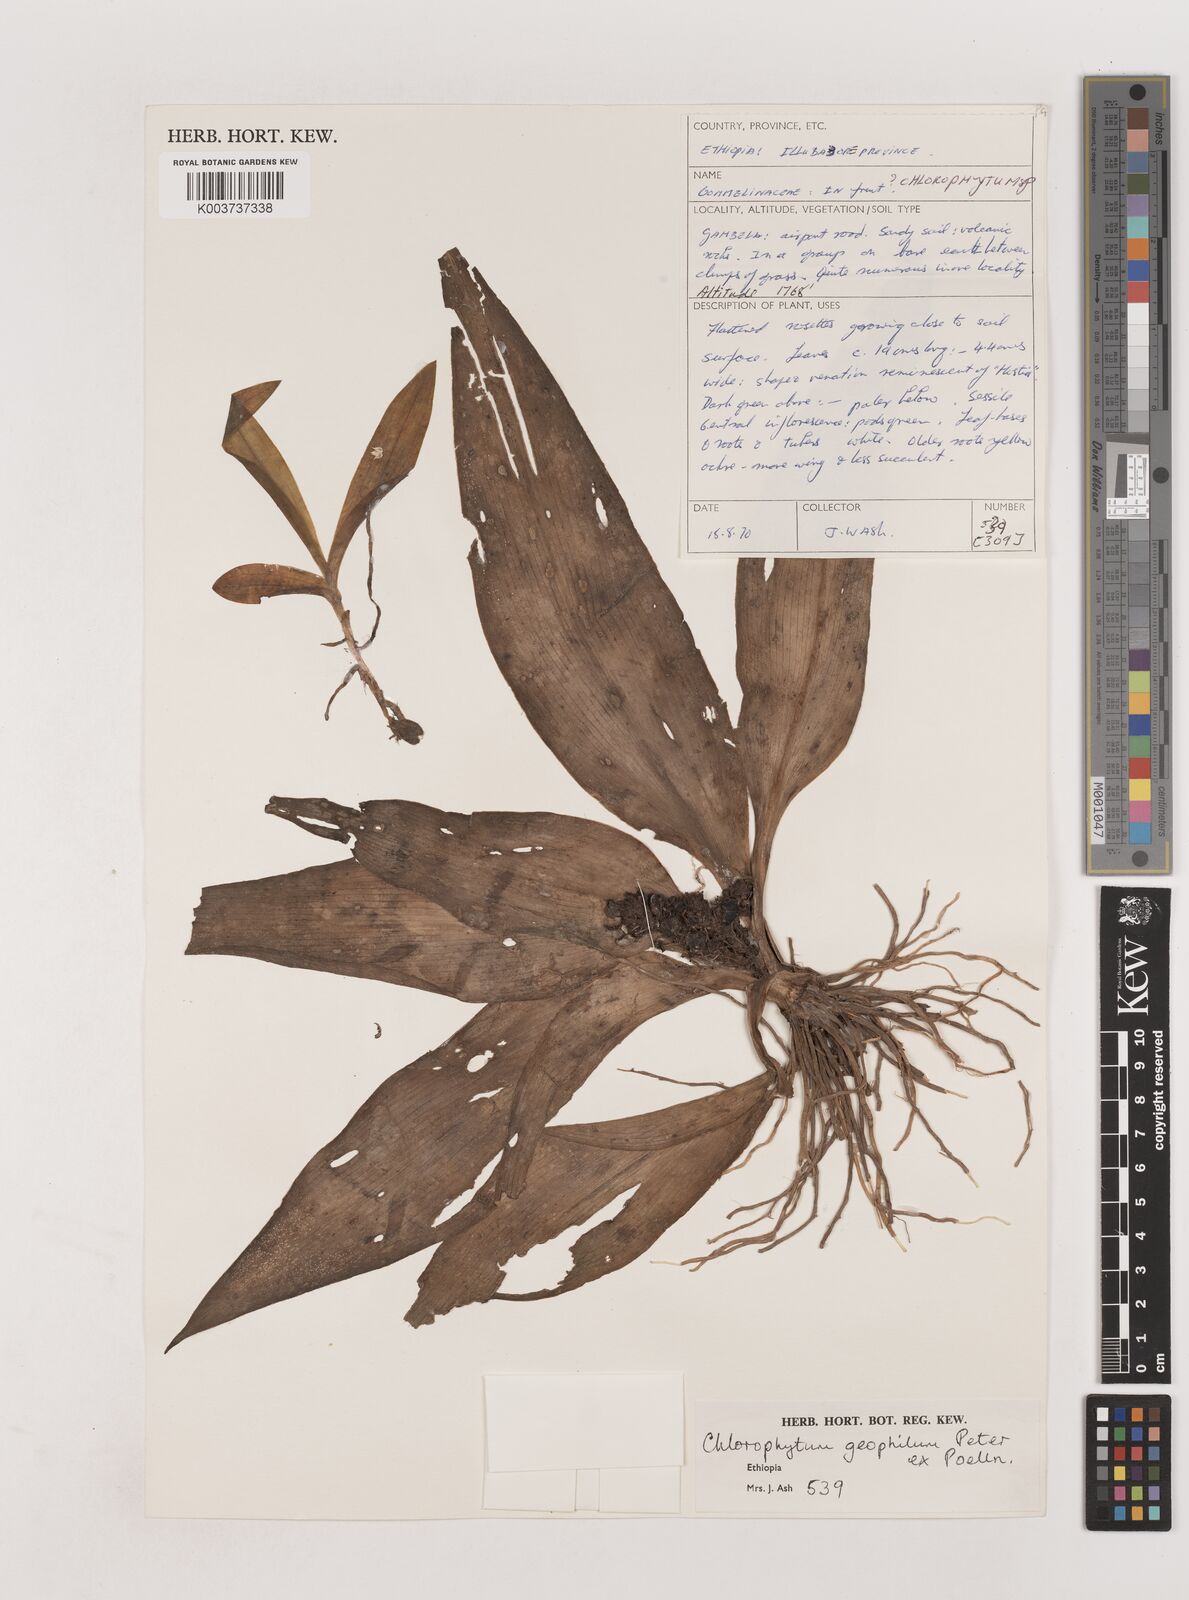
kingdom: Plantae
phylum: Tracheophyta
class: Liliopsida
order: Asparagales
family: Asparagaceae
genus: Chlorophytum
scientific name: Chlorophytum geophilum
